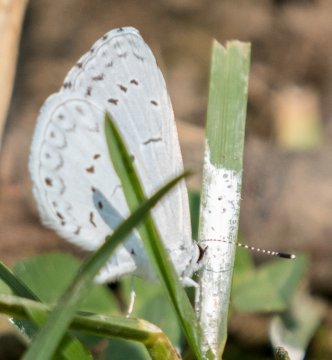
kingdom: Animalia
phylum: Arthropoda
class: Insecta
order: Lepidoptera
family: Lycaenidae
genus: Cyaniris
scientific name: Cyaniris neglecta
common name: Summer Azure
